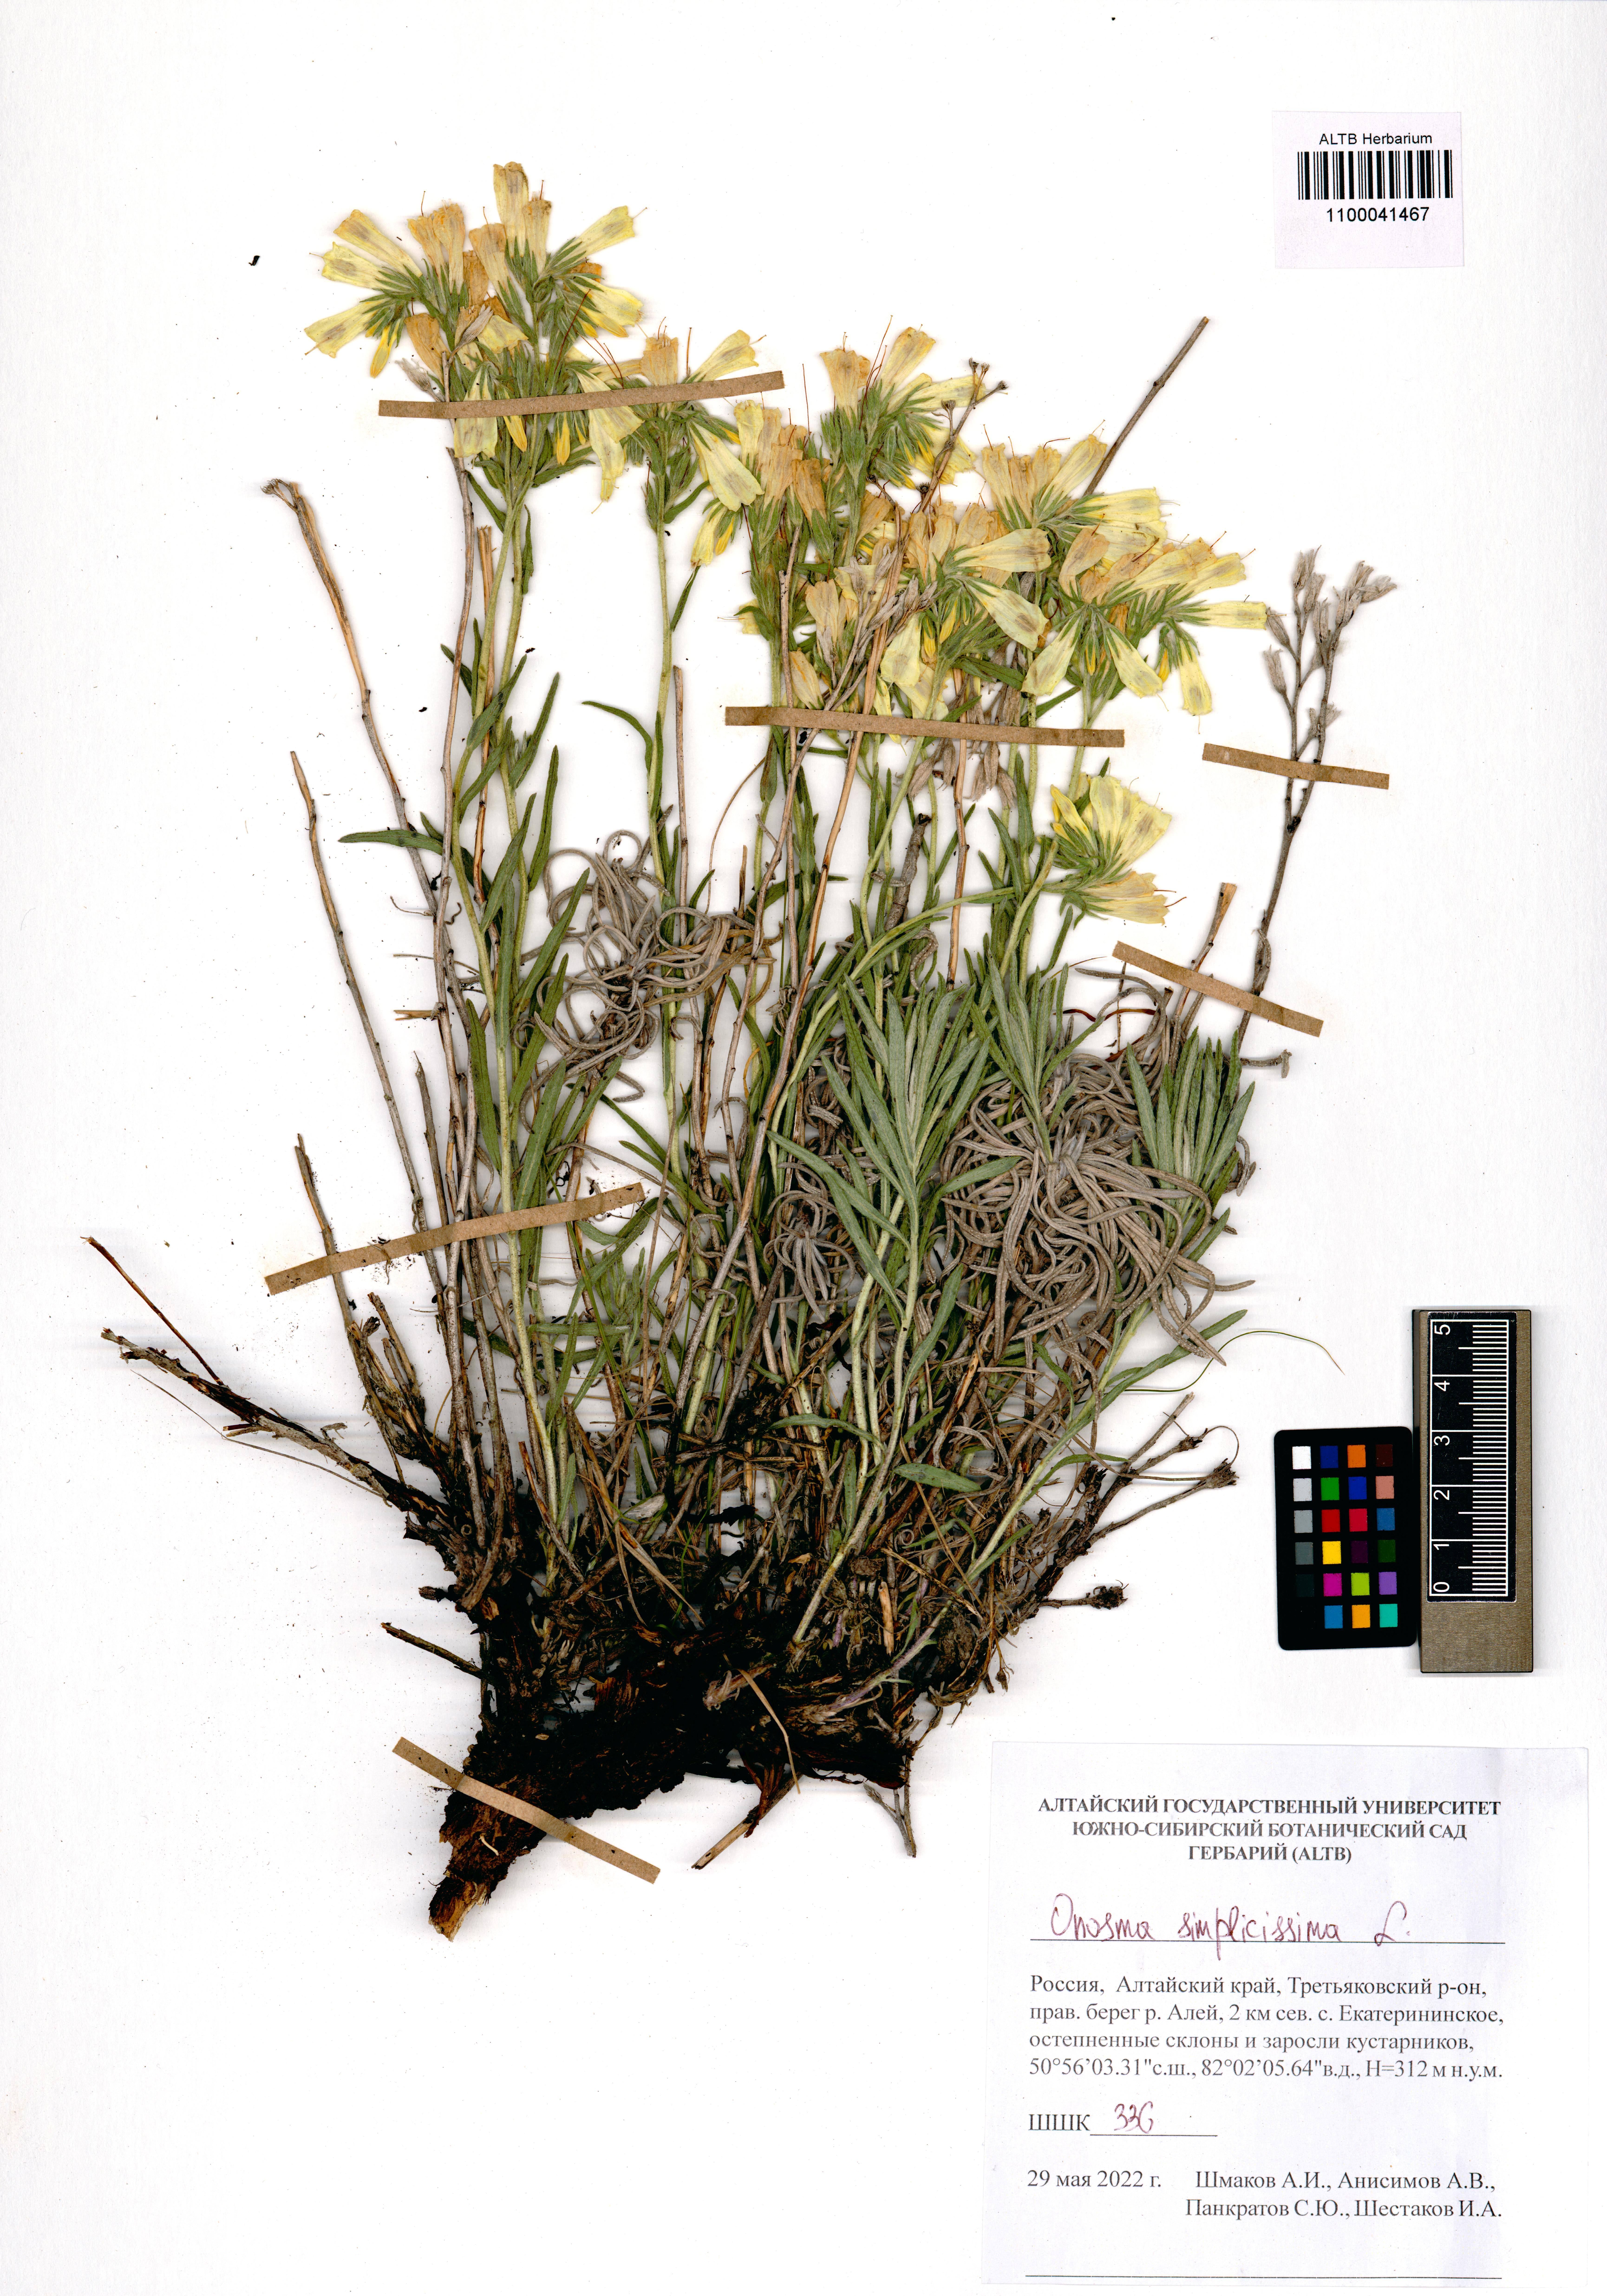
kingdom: Plantae
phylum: Tracheophyta
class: Magnoliopsida
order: Boraginales
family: Boraginaceae
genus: Onosma
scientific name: Onosma simplicissima
